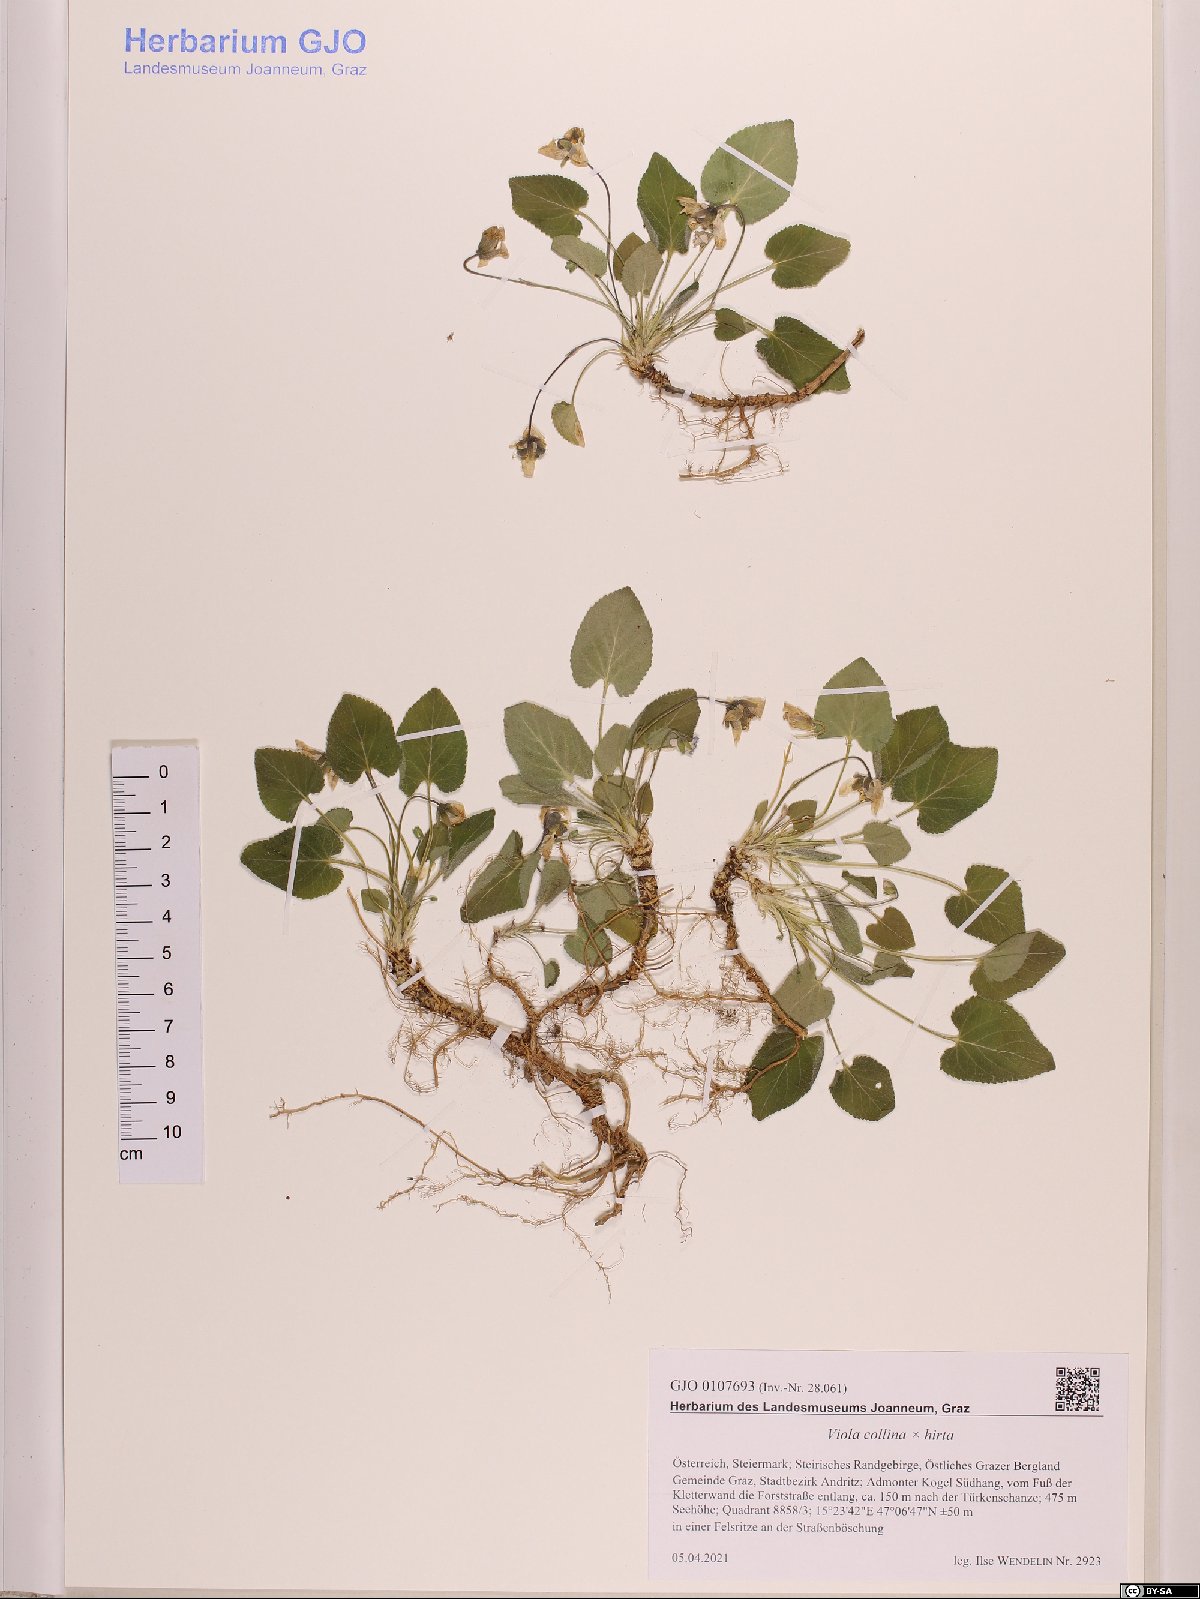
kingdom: Plantae
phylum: Tracheophyta
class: Magnoliopsida
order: Malpighiales
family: Violaceae
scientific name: Violaceae
